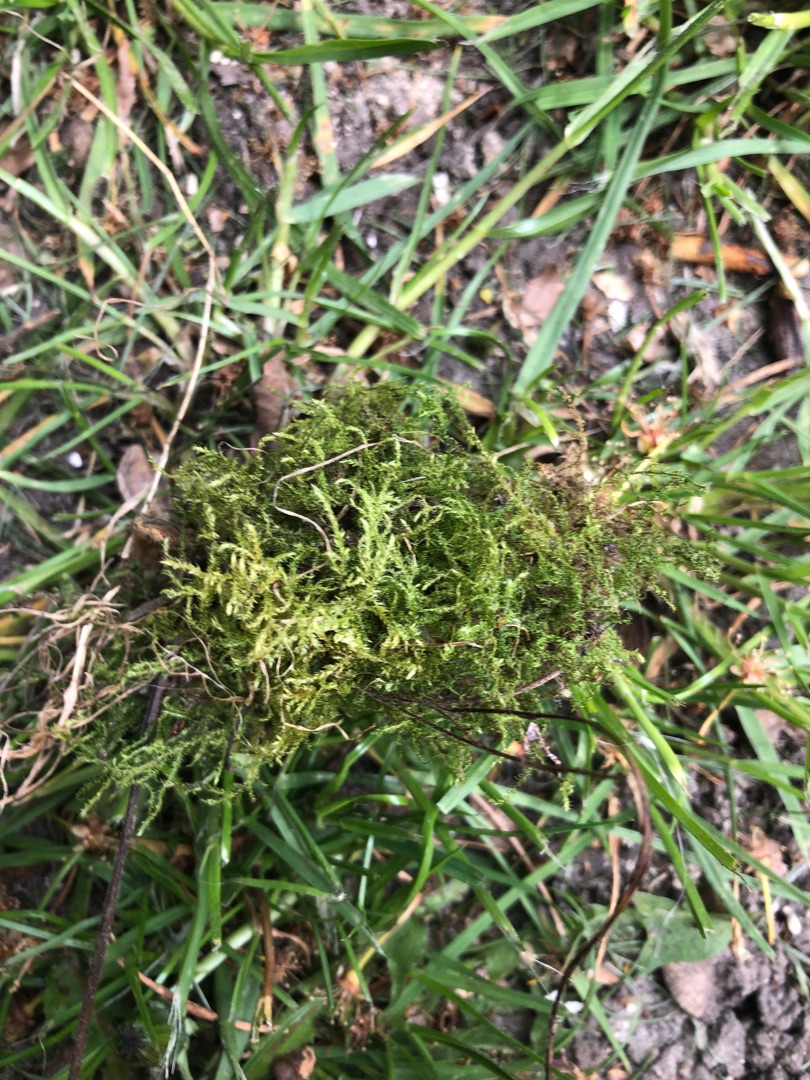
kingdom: Plantae
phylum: Bryophyta
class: Bryopsida
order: Hypnales
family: Brachytheciaceae
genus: Kindbergia
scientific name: Kindbergia praelonga
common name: Forskelligbladet vortetand
